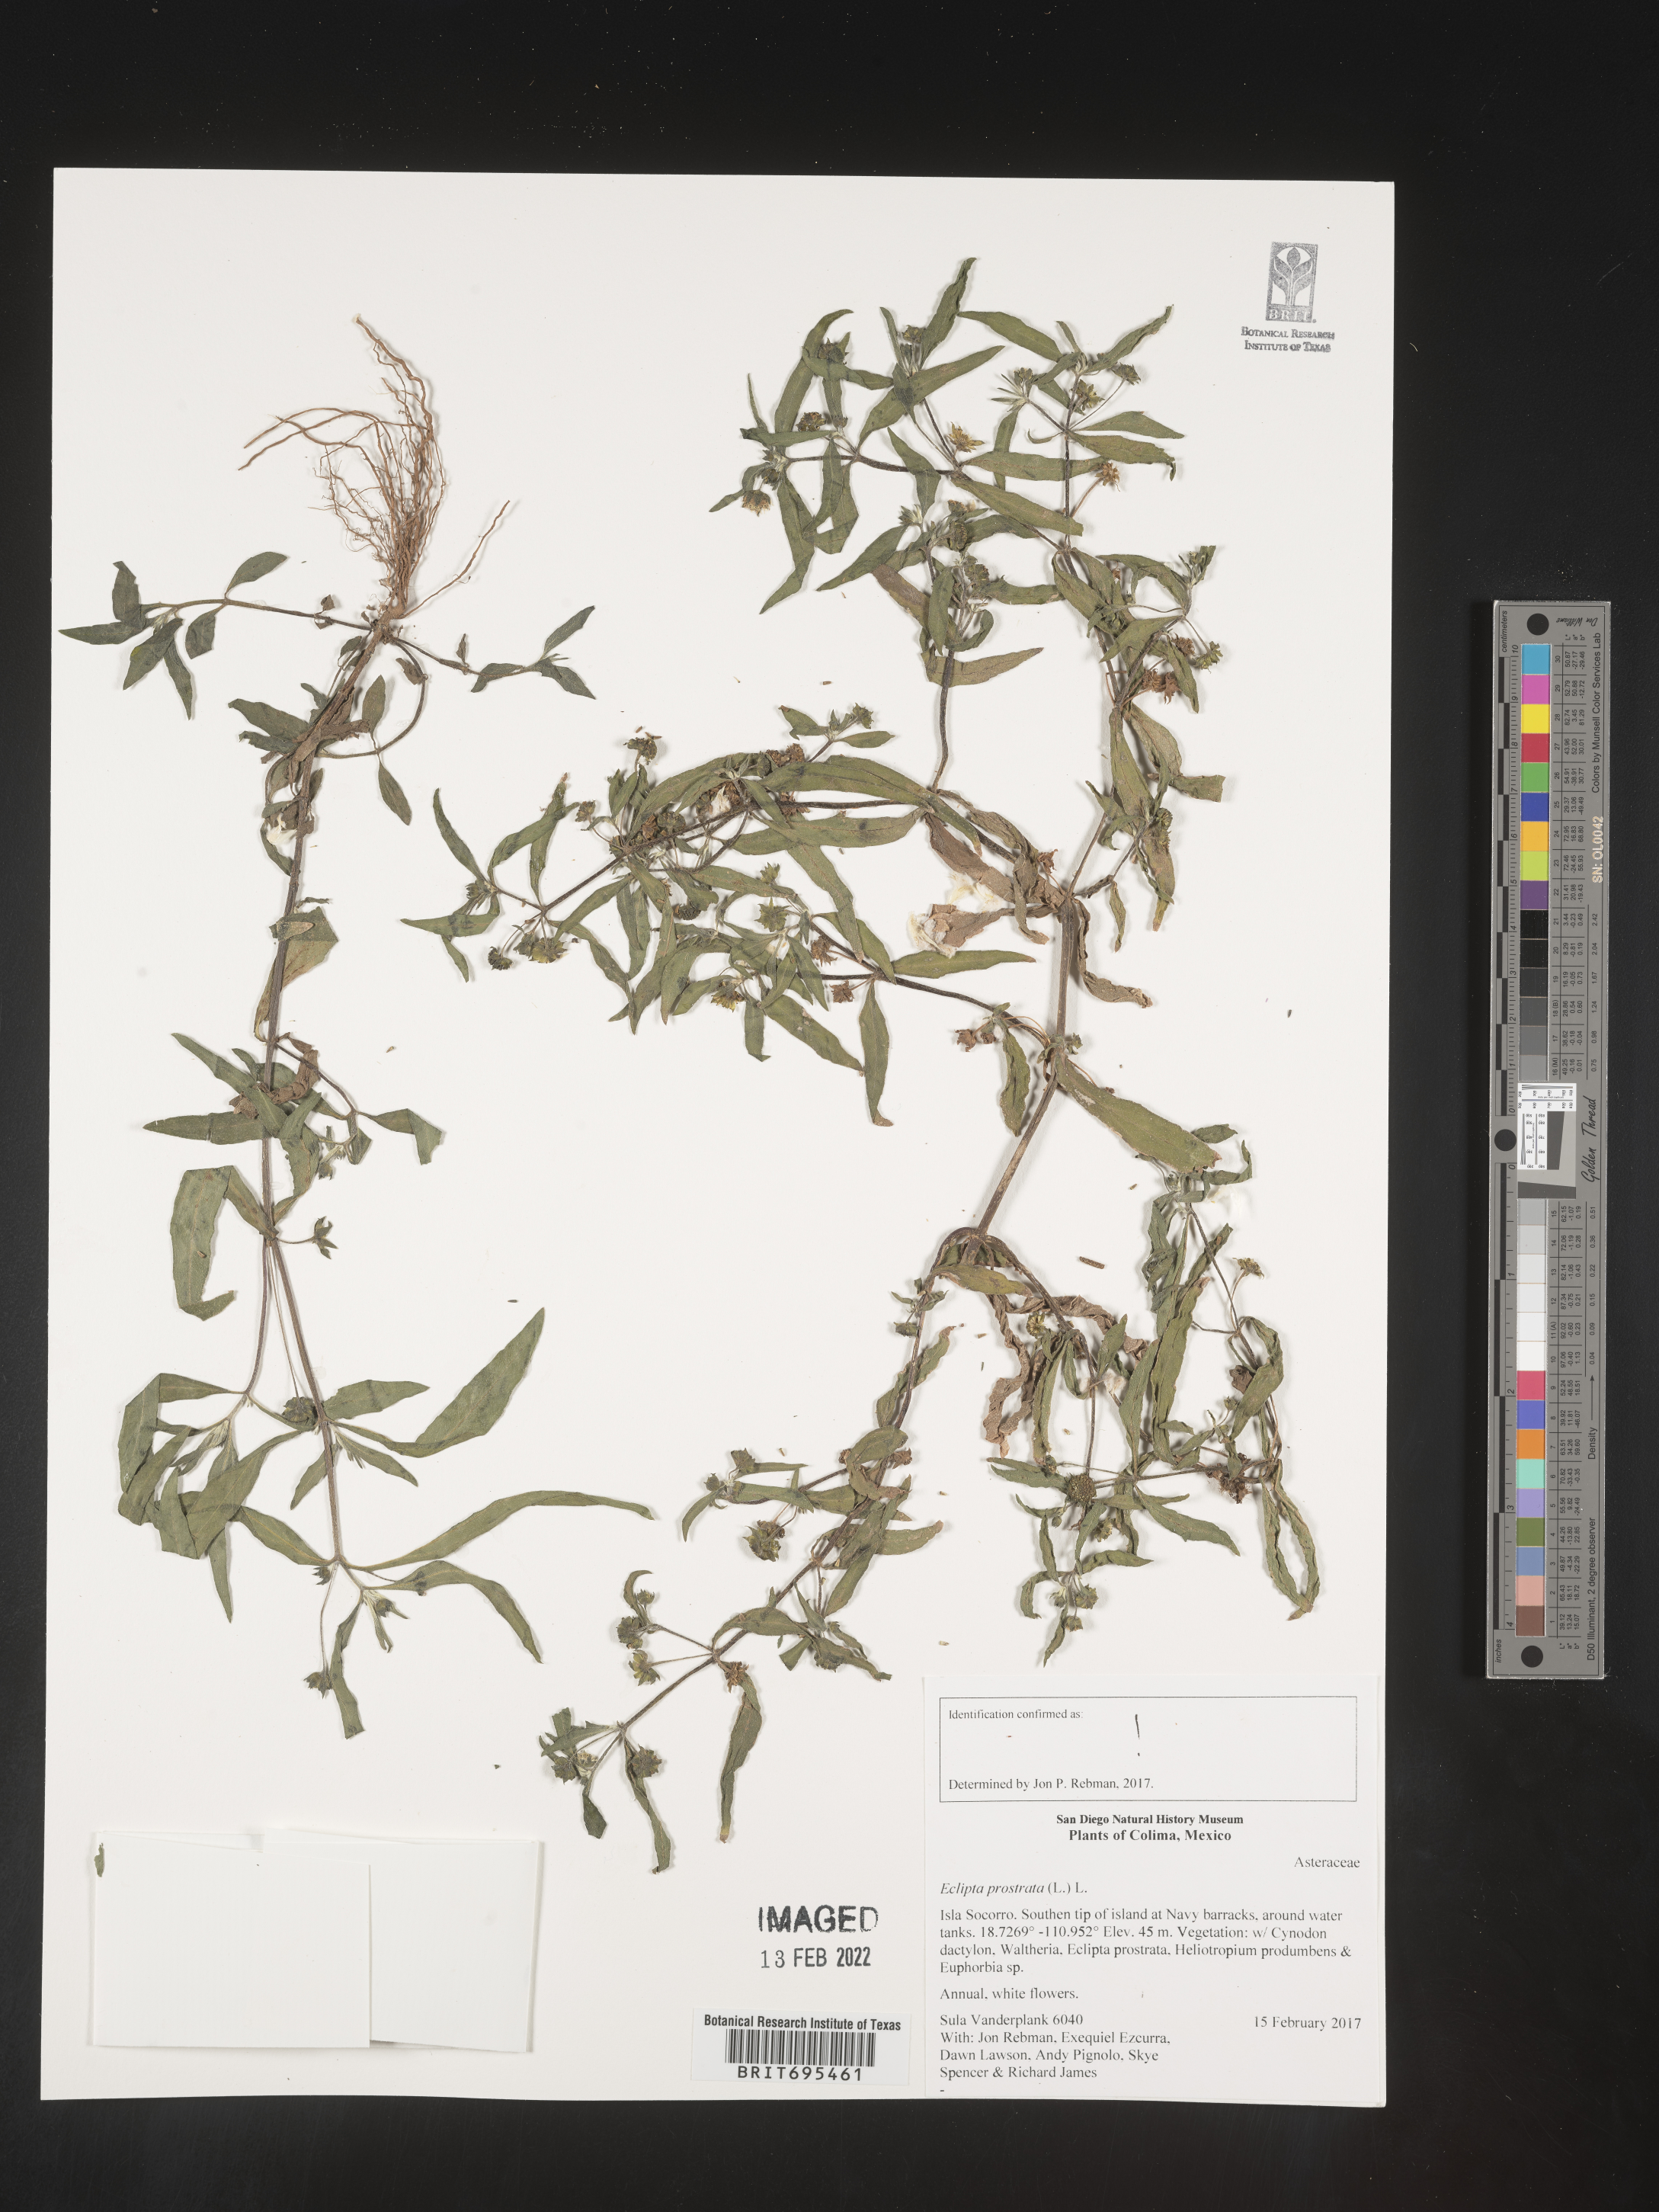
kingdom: Plantae
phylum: Tracheophyta
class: Magnoliopsida
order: Asterales
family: Asteraceae
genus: Eclipta
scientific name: Eclipta
